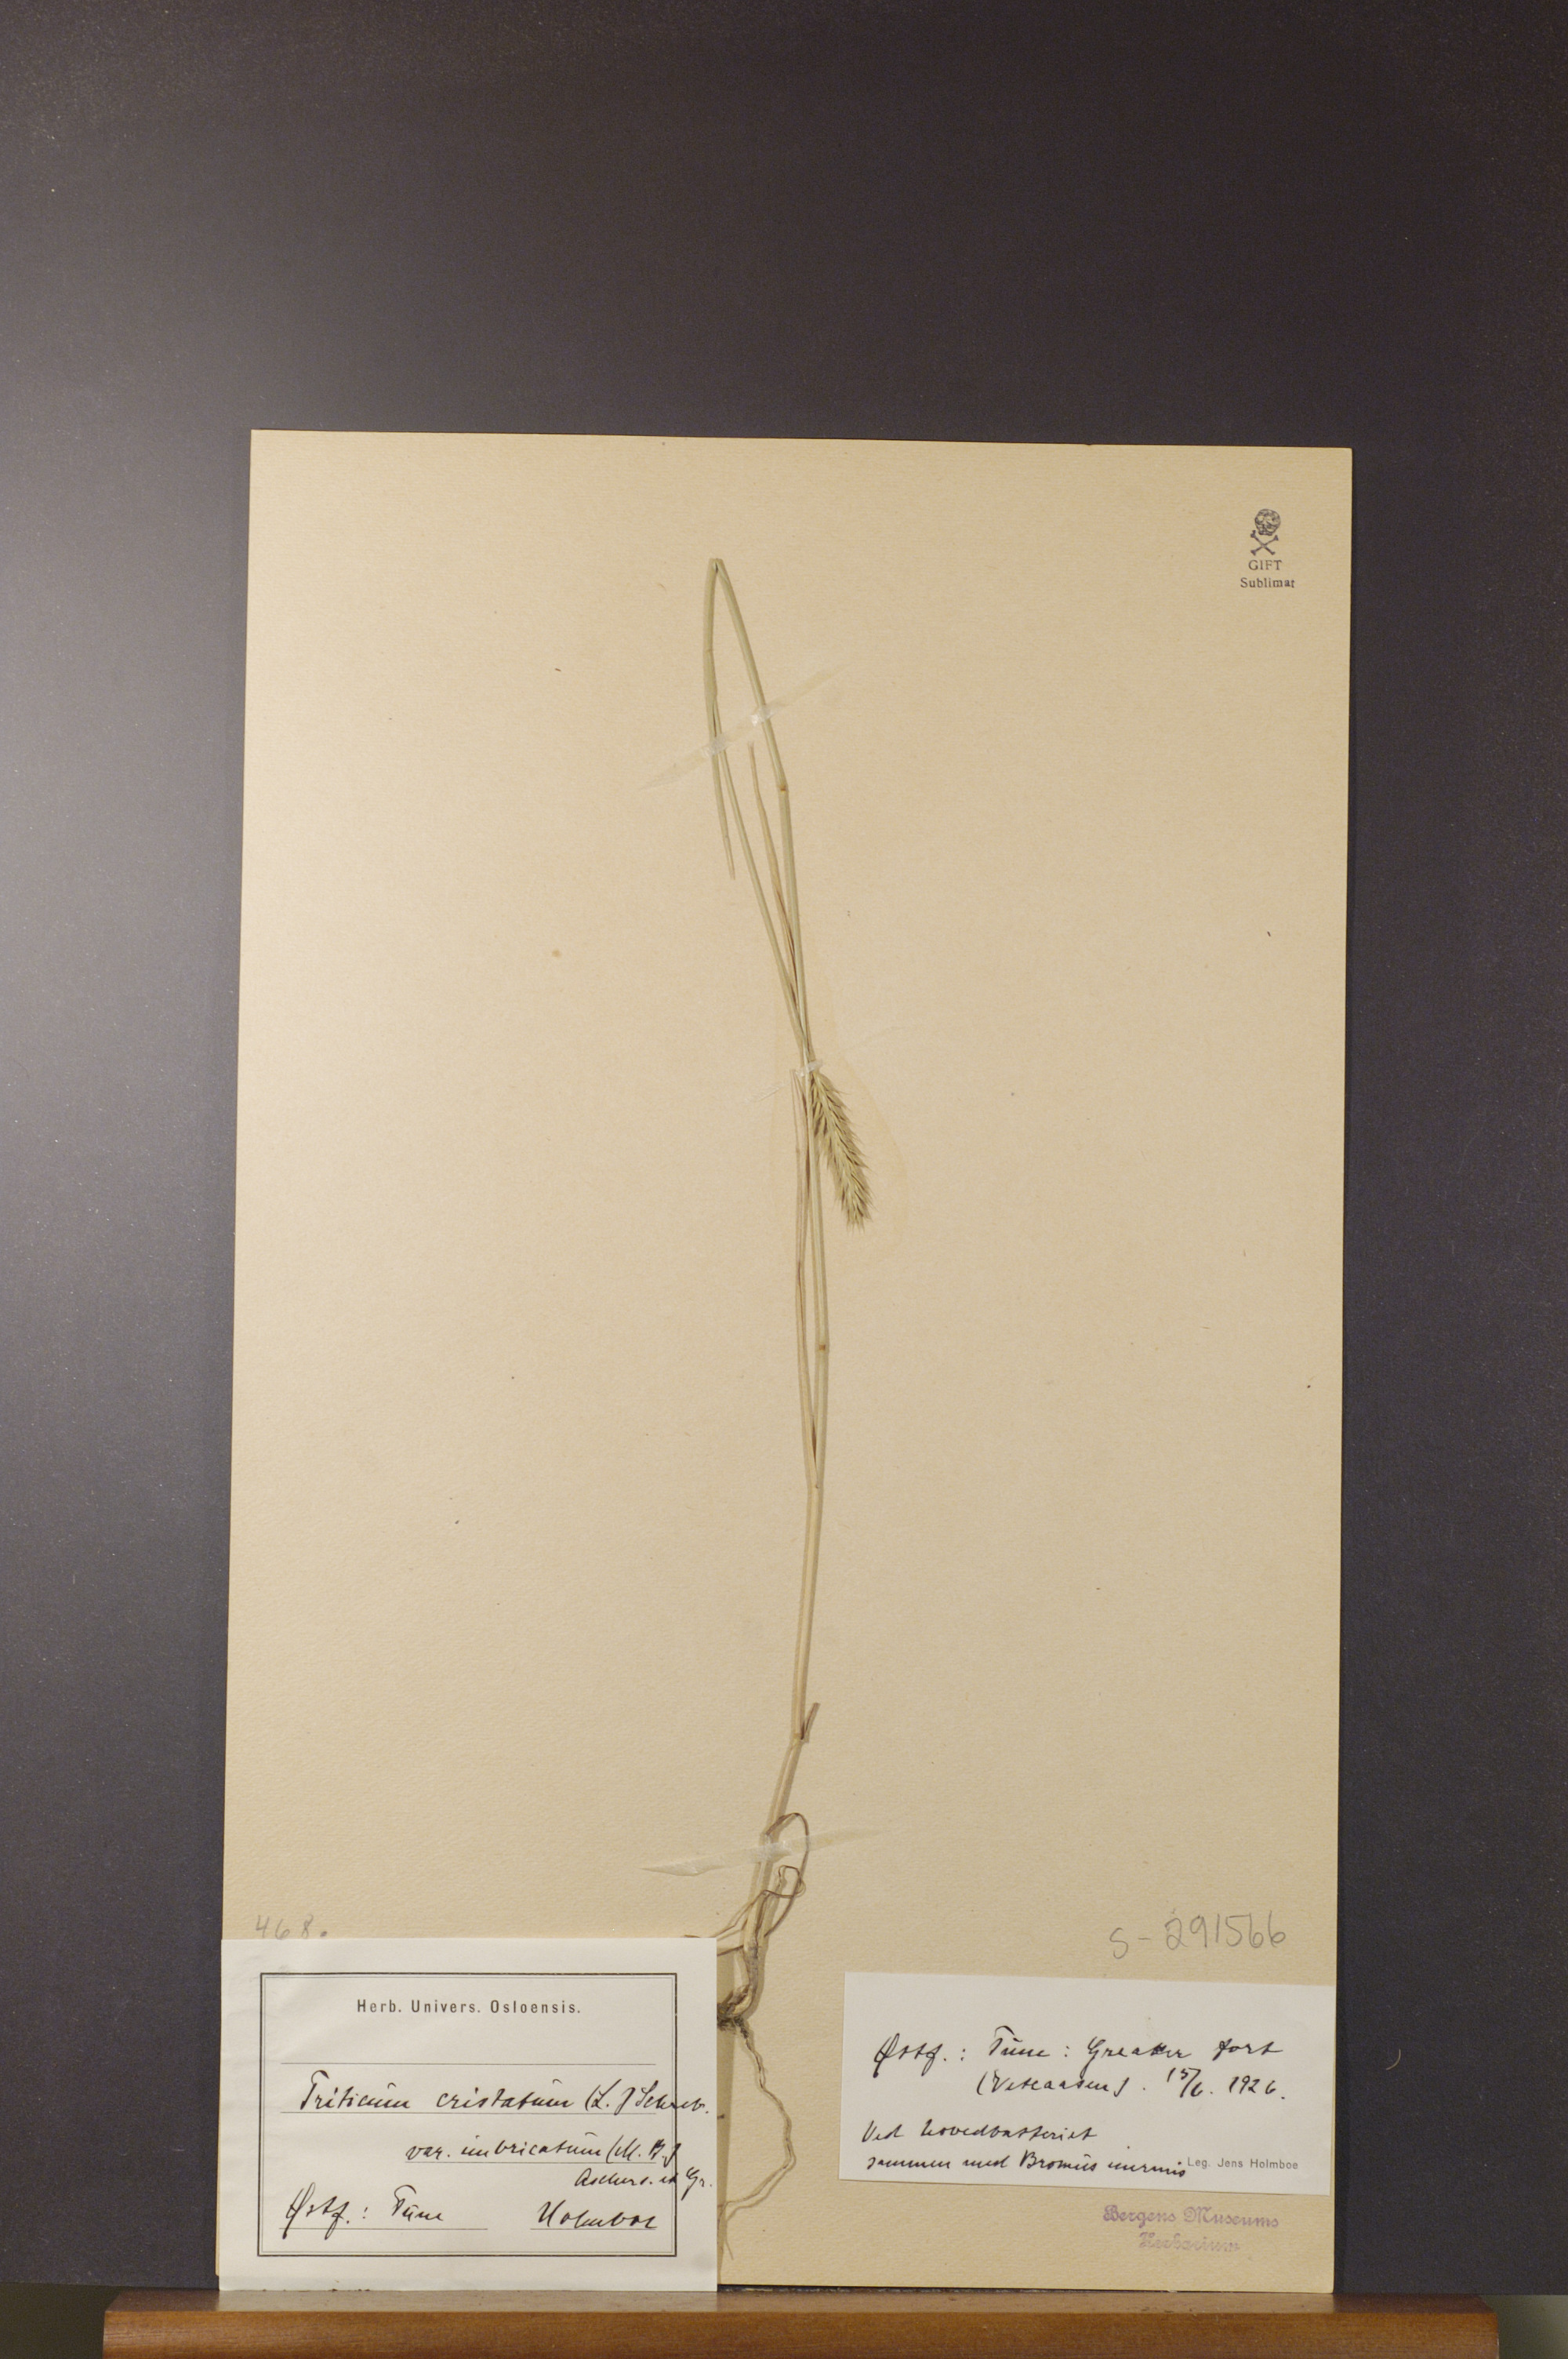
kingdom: Plantae
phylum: Tracheophyta
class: Liliopsida
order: Poales
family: Poaceae
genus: Agropyron
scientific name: Agropyron cristatum
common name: Crested wheatgrass
